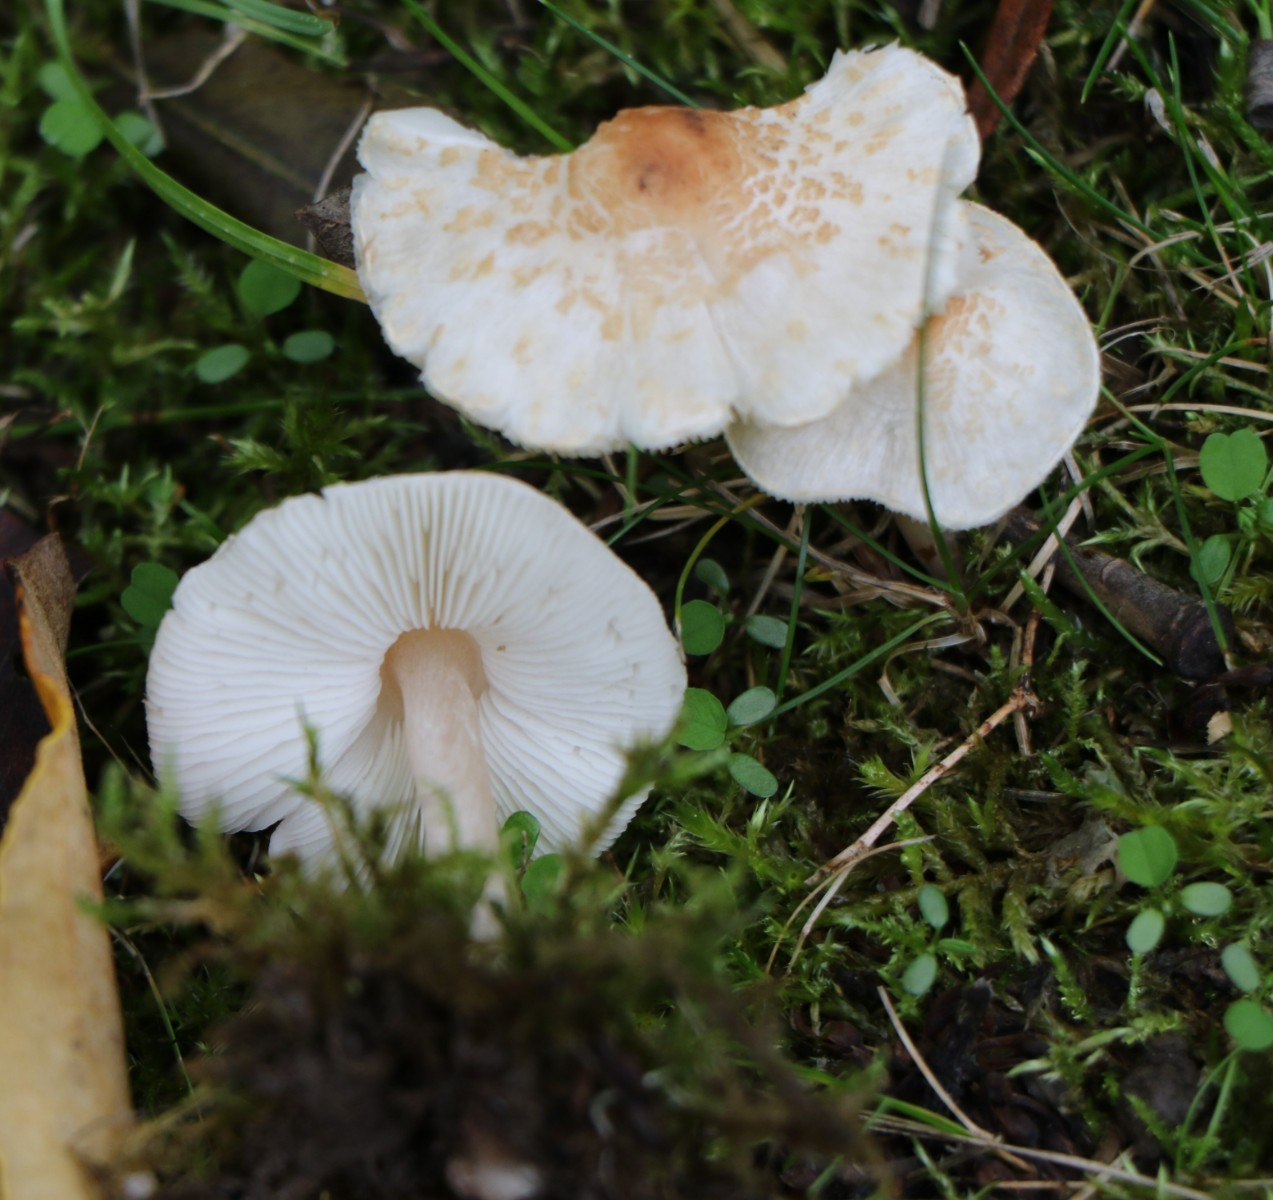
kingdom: Fungi
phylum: Basidiomycota
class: Agaricomycetes
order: Agaricales
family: Agaricaceae
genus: Lepiota
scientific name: Lepiota cristata
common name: stinkende parasolhat
